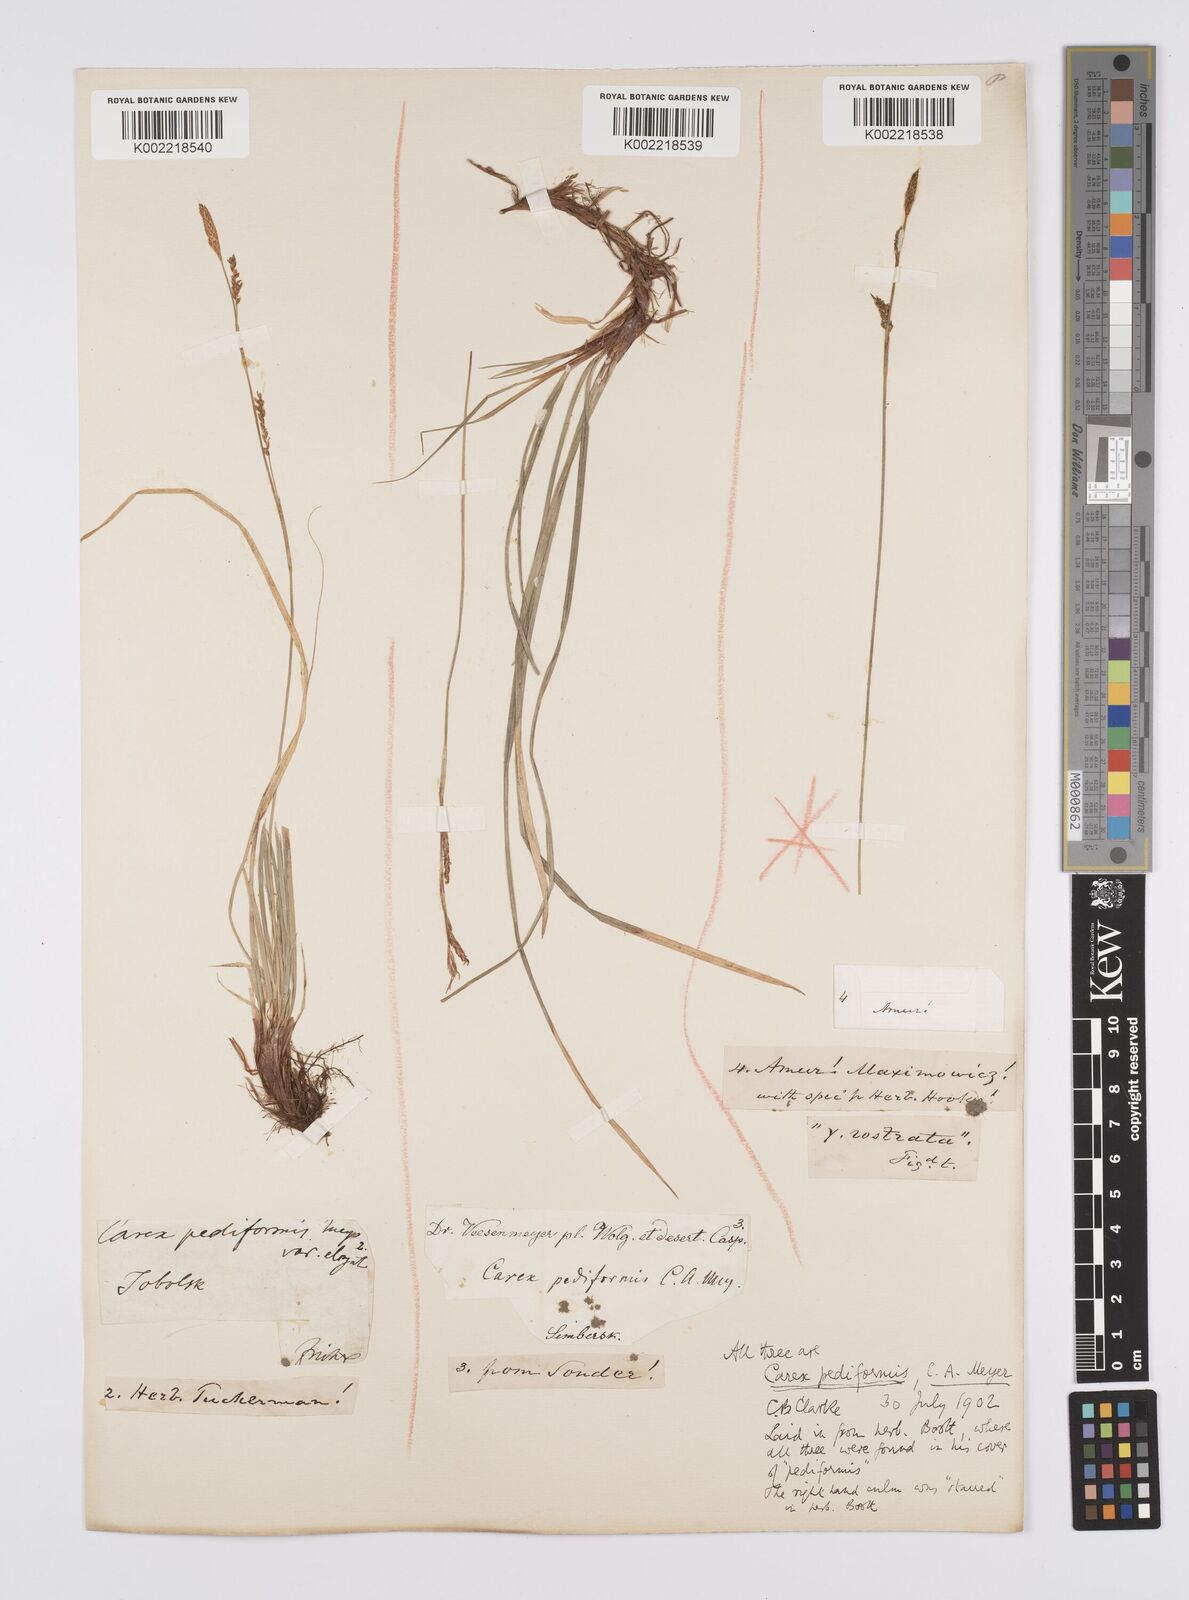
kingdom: Plantae
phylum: Tracheophyta
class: Liliopsida
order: Poales
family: Cyperaceae
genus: Carex
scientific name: Carex pediformis
